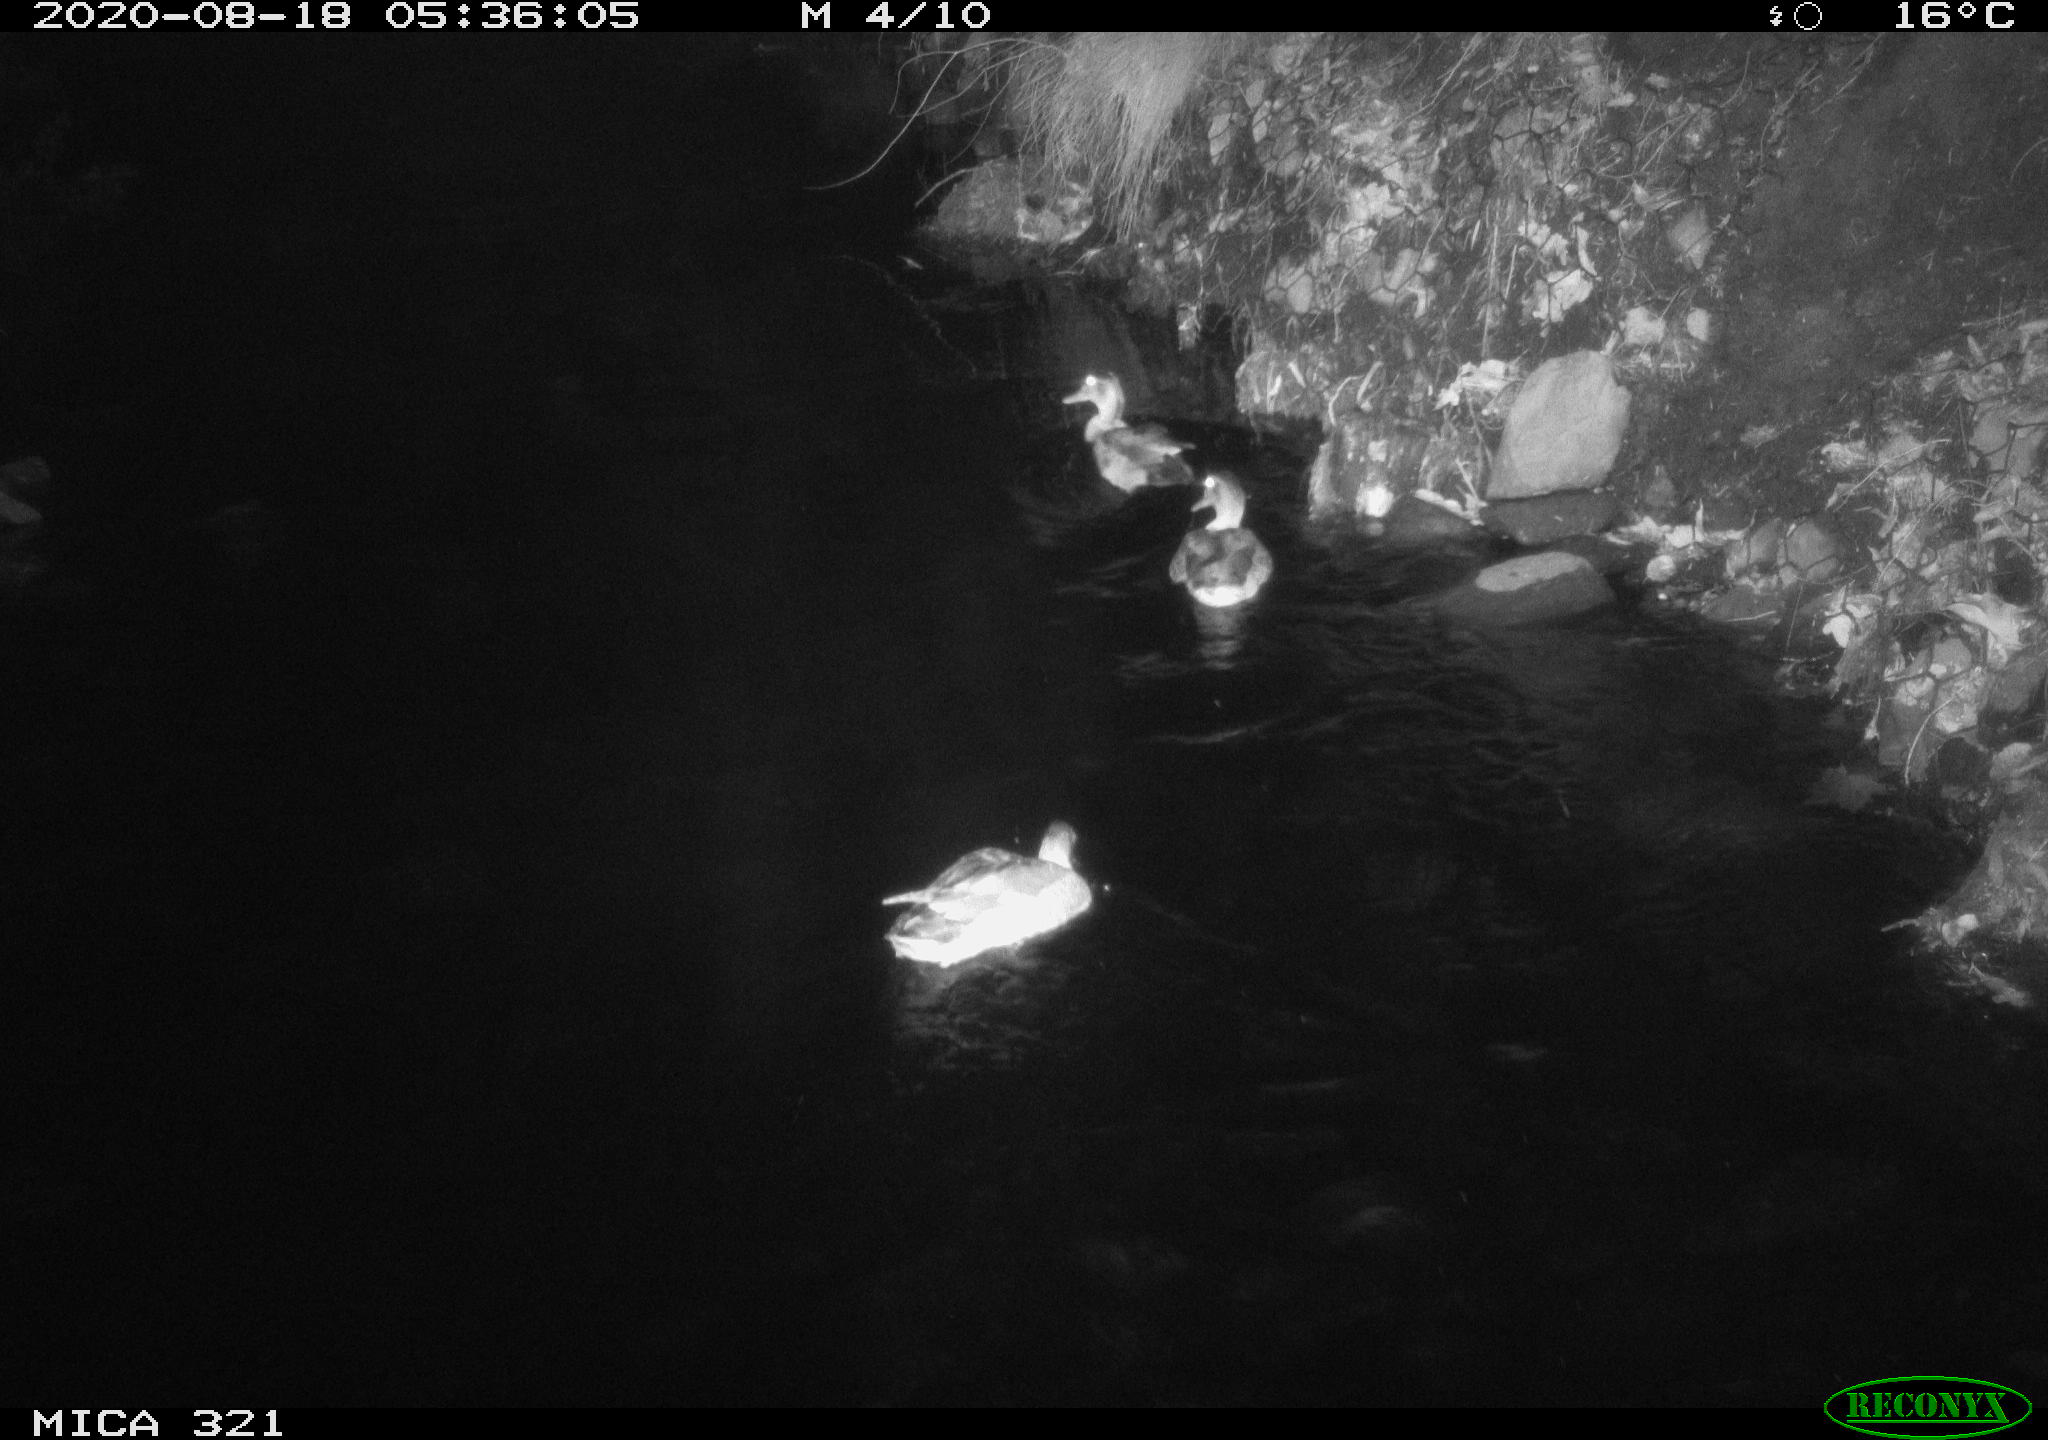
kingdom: Animalia
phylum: Chordata
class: Aves
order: Anseriformes
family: Anatidae
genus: Anas
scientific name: Anas platyrhynchos
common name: Mallard
